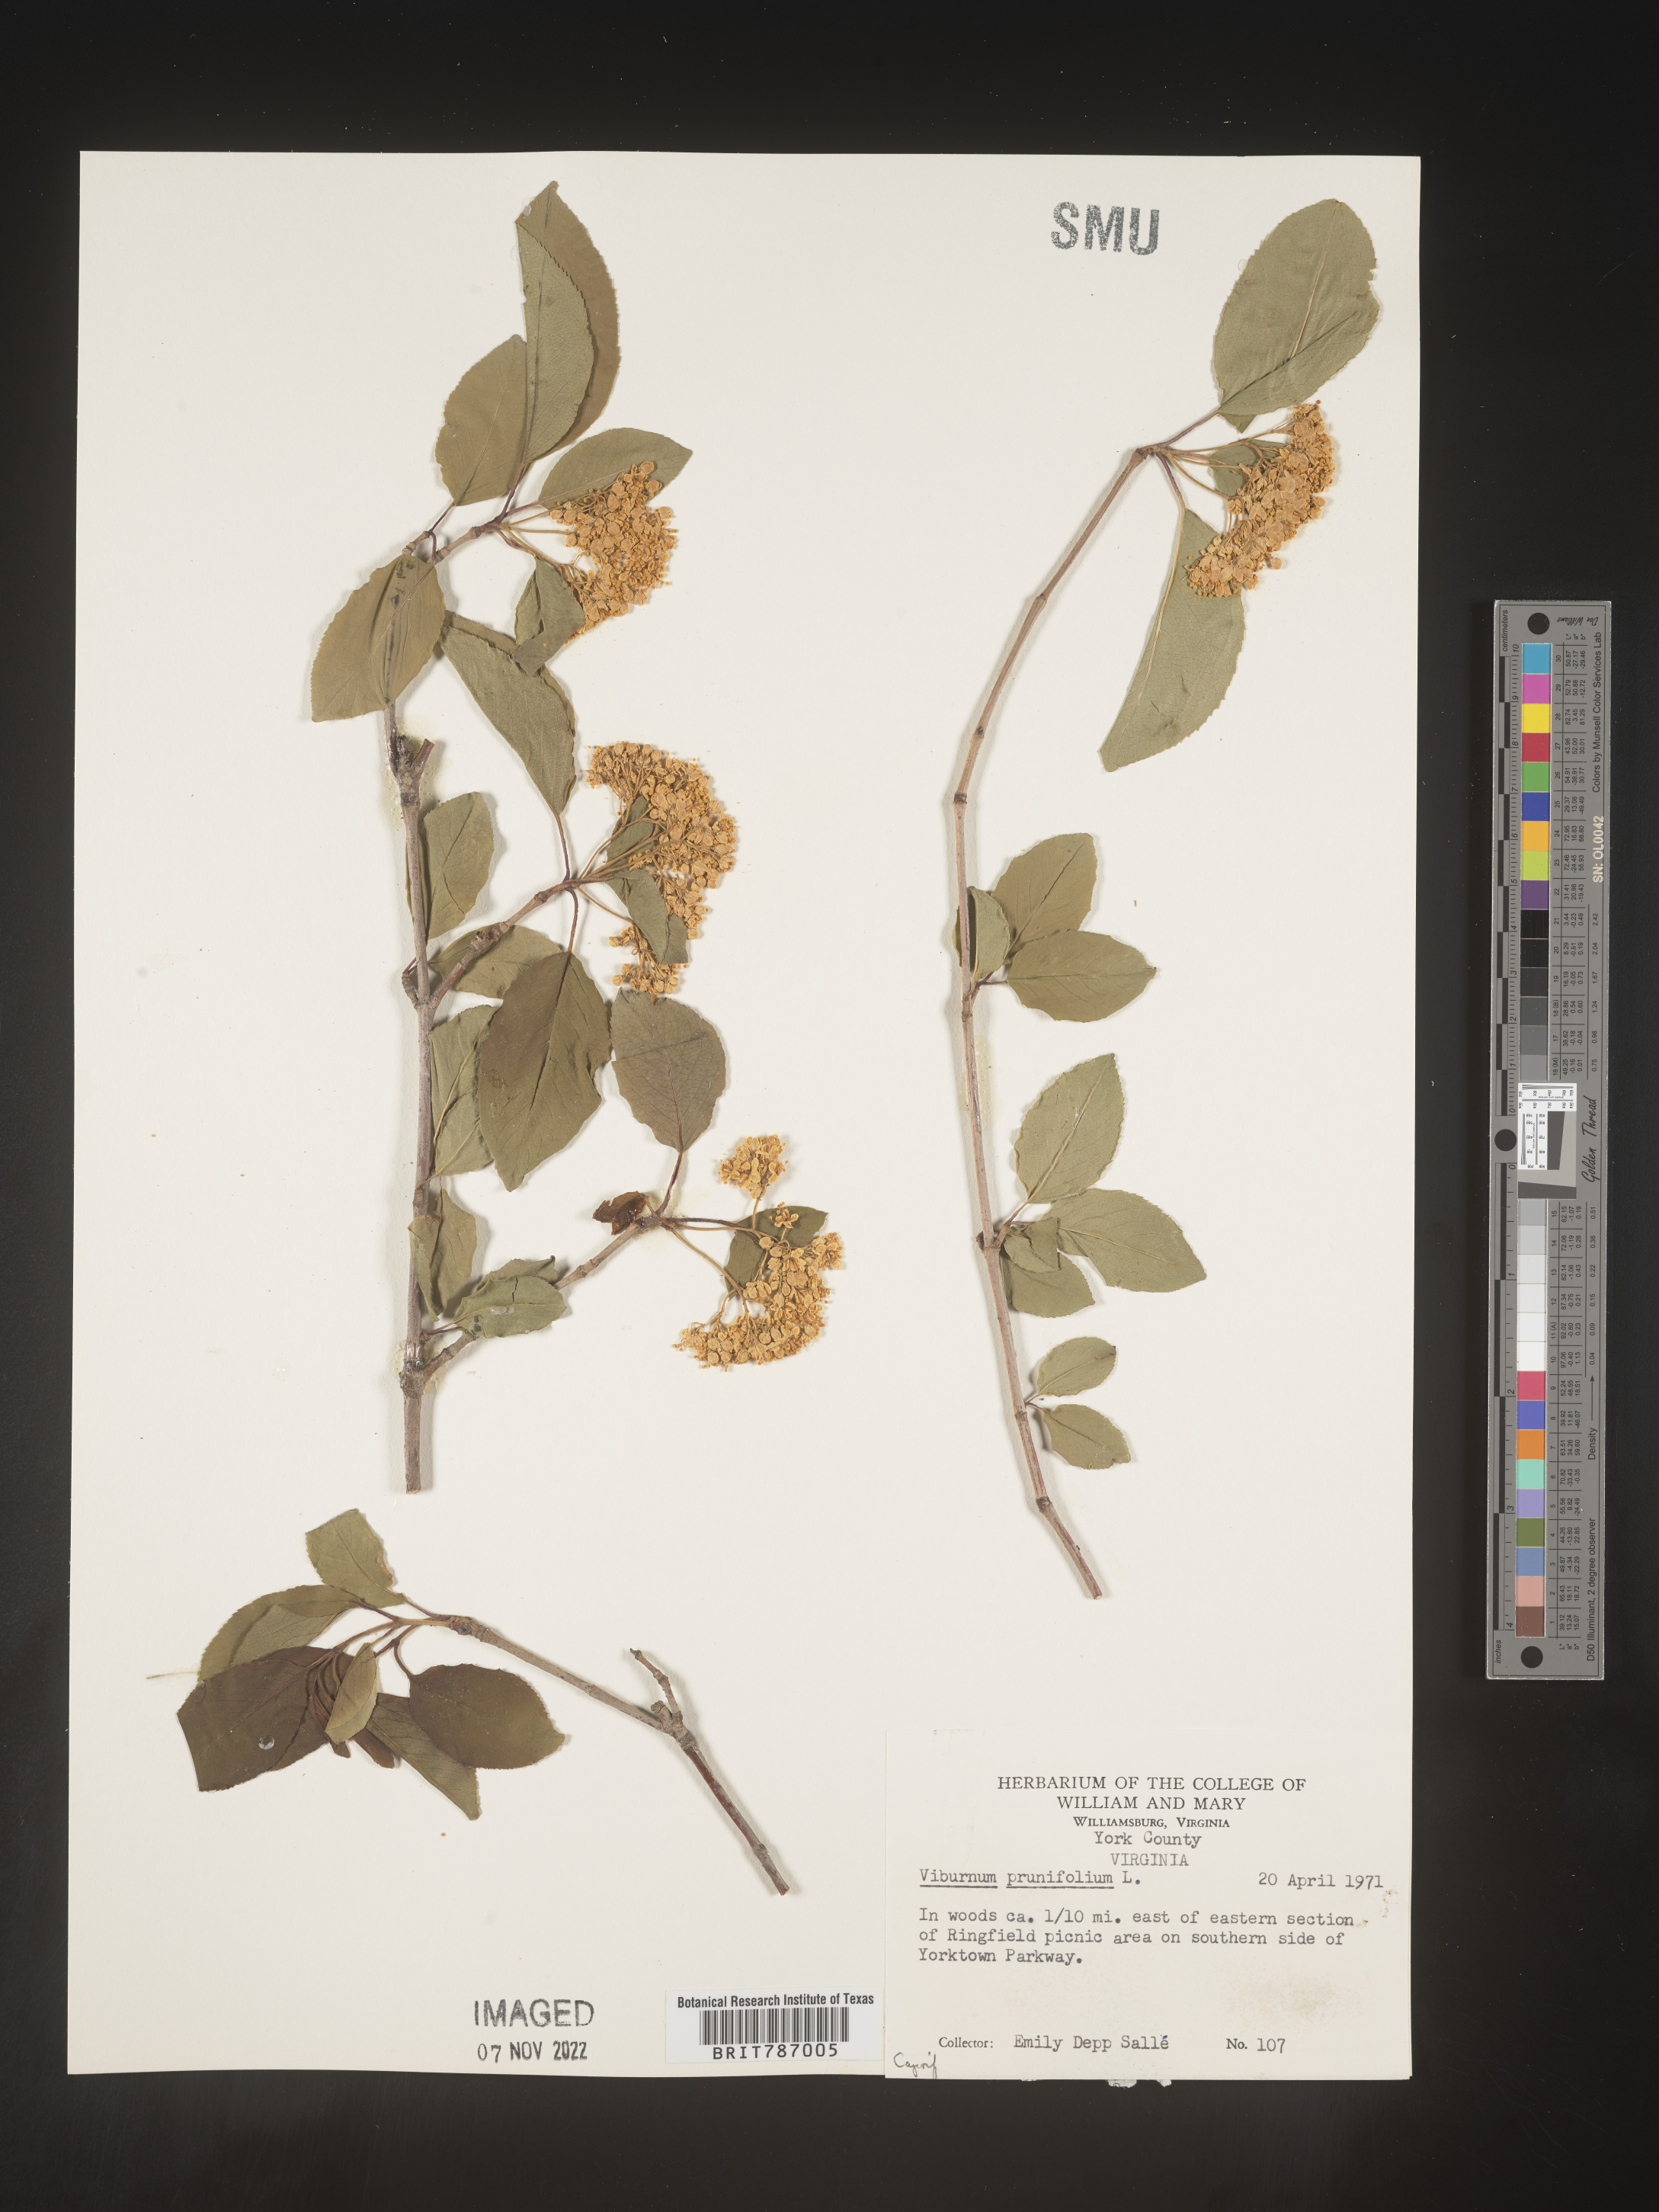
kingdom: Plantae
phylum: Tracheophyta
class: Magnoliopsida
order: Dipsacales
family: Viburnaceae
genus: Viburnum
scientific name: Viburnum prunifolium
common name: Black haw
